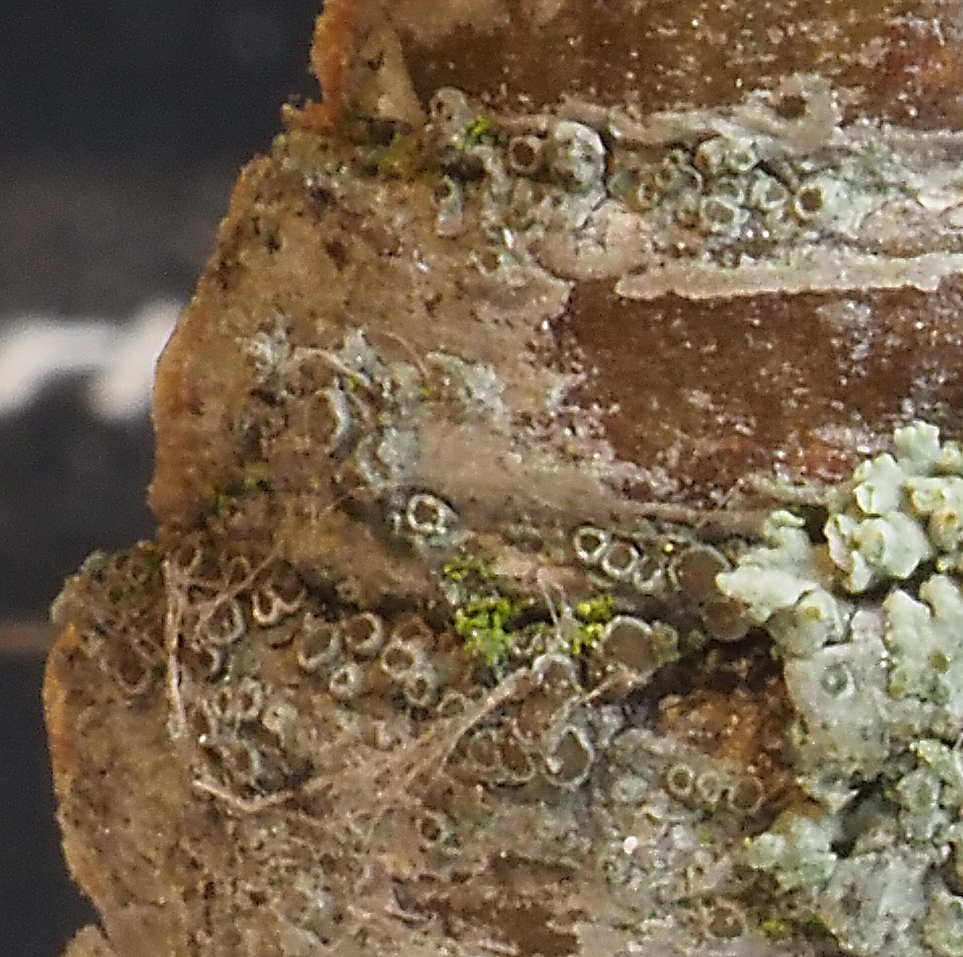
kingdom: Fungi
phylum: Ascomycota
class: Lecanoromycetes
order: Lecanorales
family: Lecanoraceae
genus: Polyozosia
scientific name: Polyozosia persimilis
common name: brunrød kantskivelav
